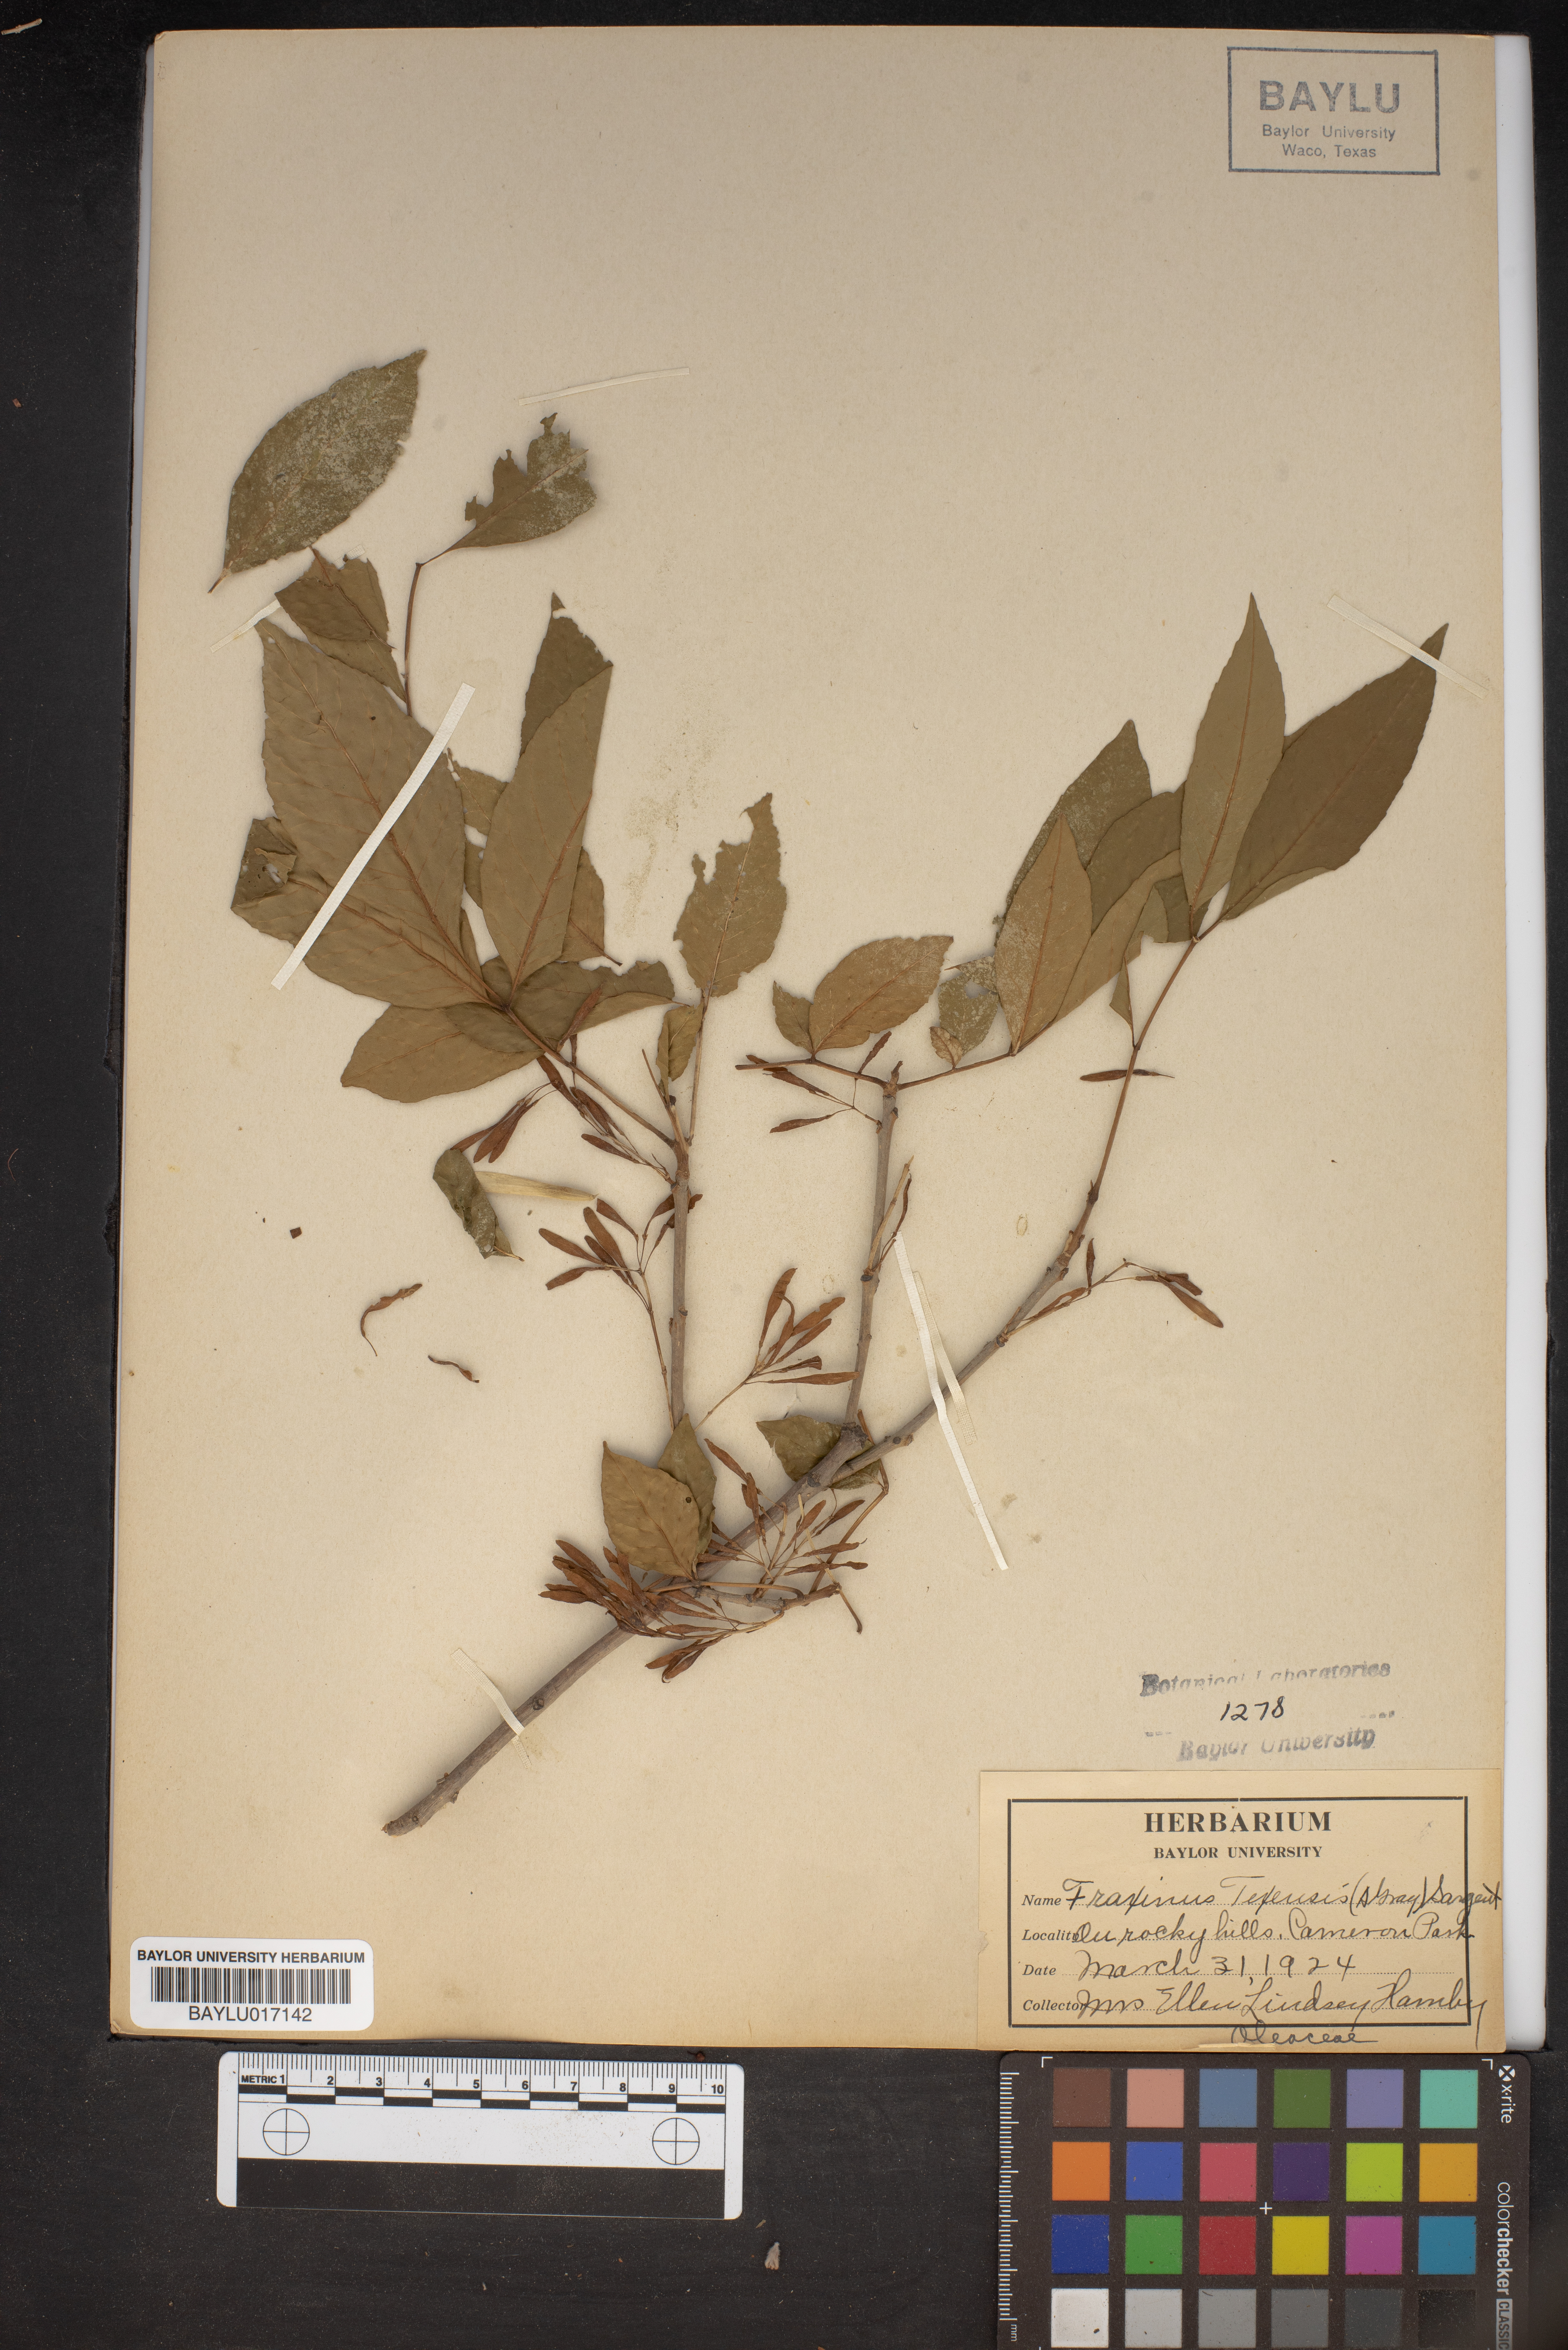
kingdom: Plantae
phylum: Tracheophyta
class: Magnoliopsida
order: Lamiales
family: Oleaceae
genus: Fraxinus
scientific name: Fraxinus albicans
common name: Texas ash
